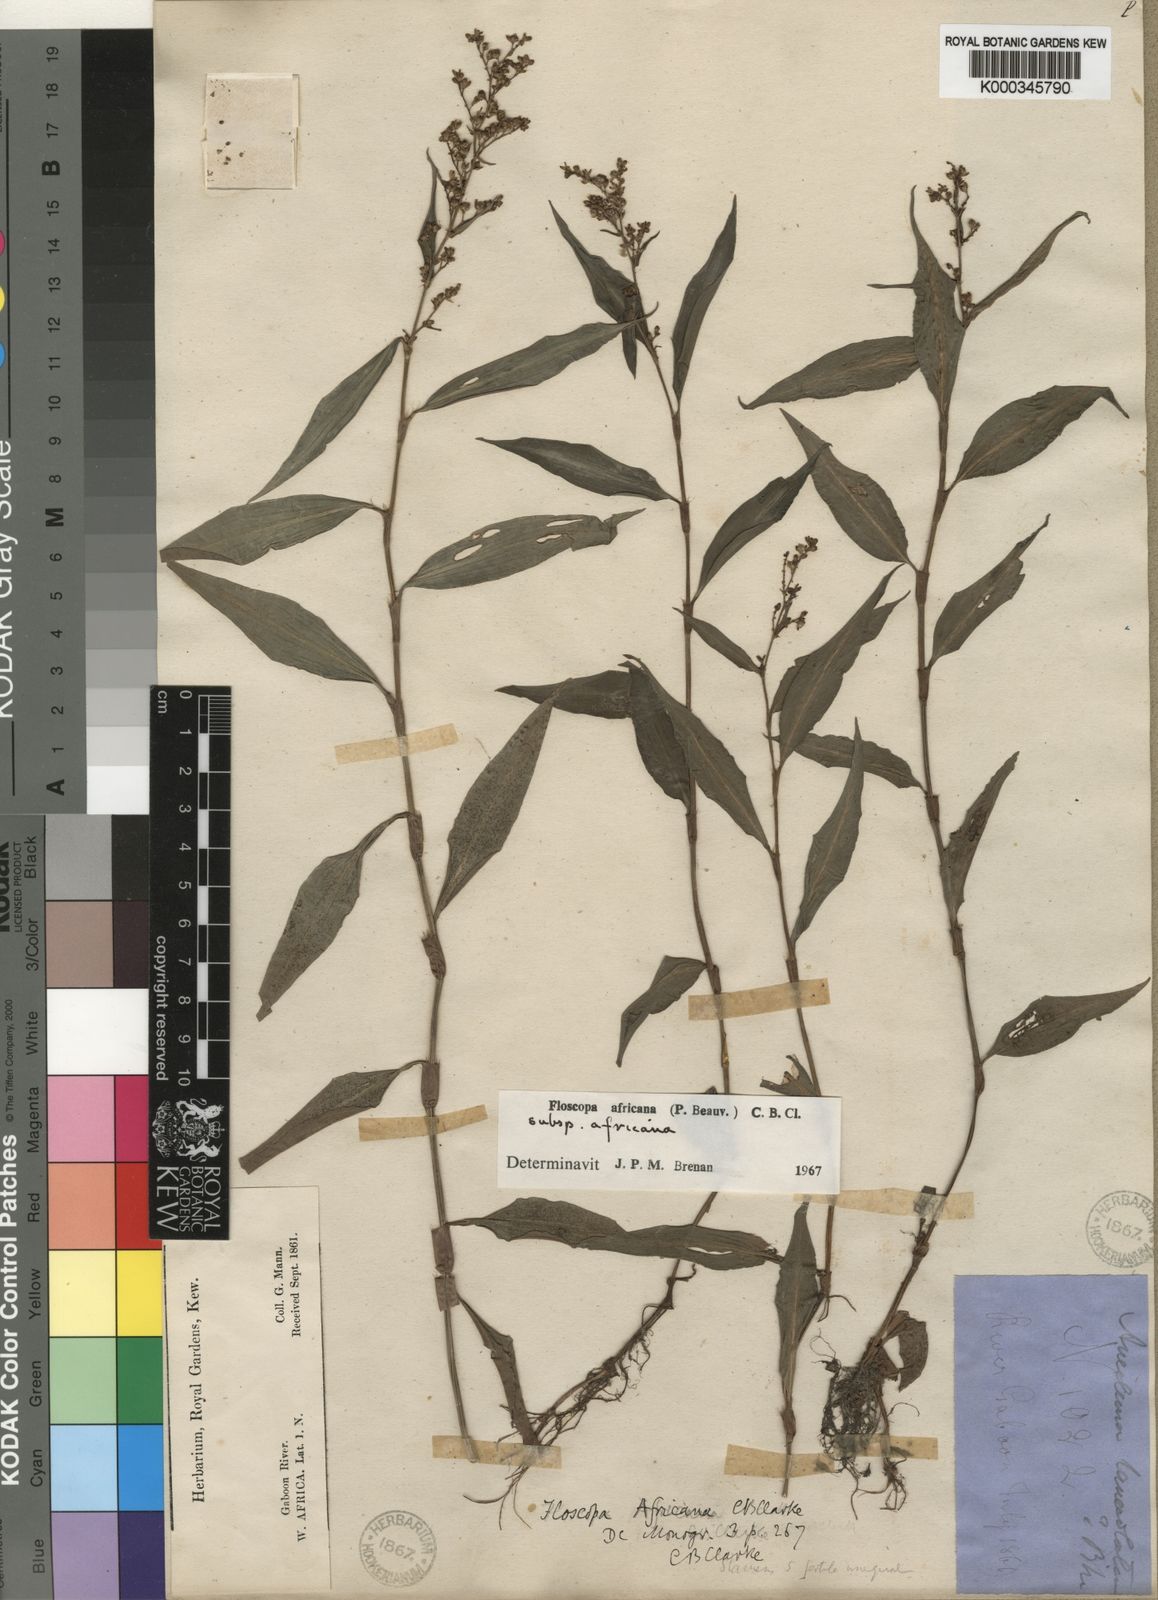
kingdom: Plantae
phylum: Tracheophyta
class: Liliopsida
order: Commelinales
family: Commelinaceae
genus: Floscopa
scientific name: Floscopa africana
